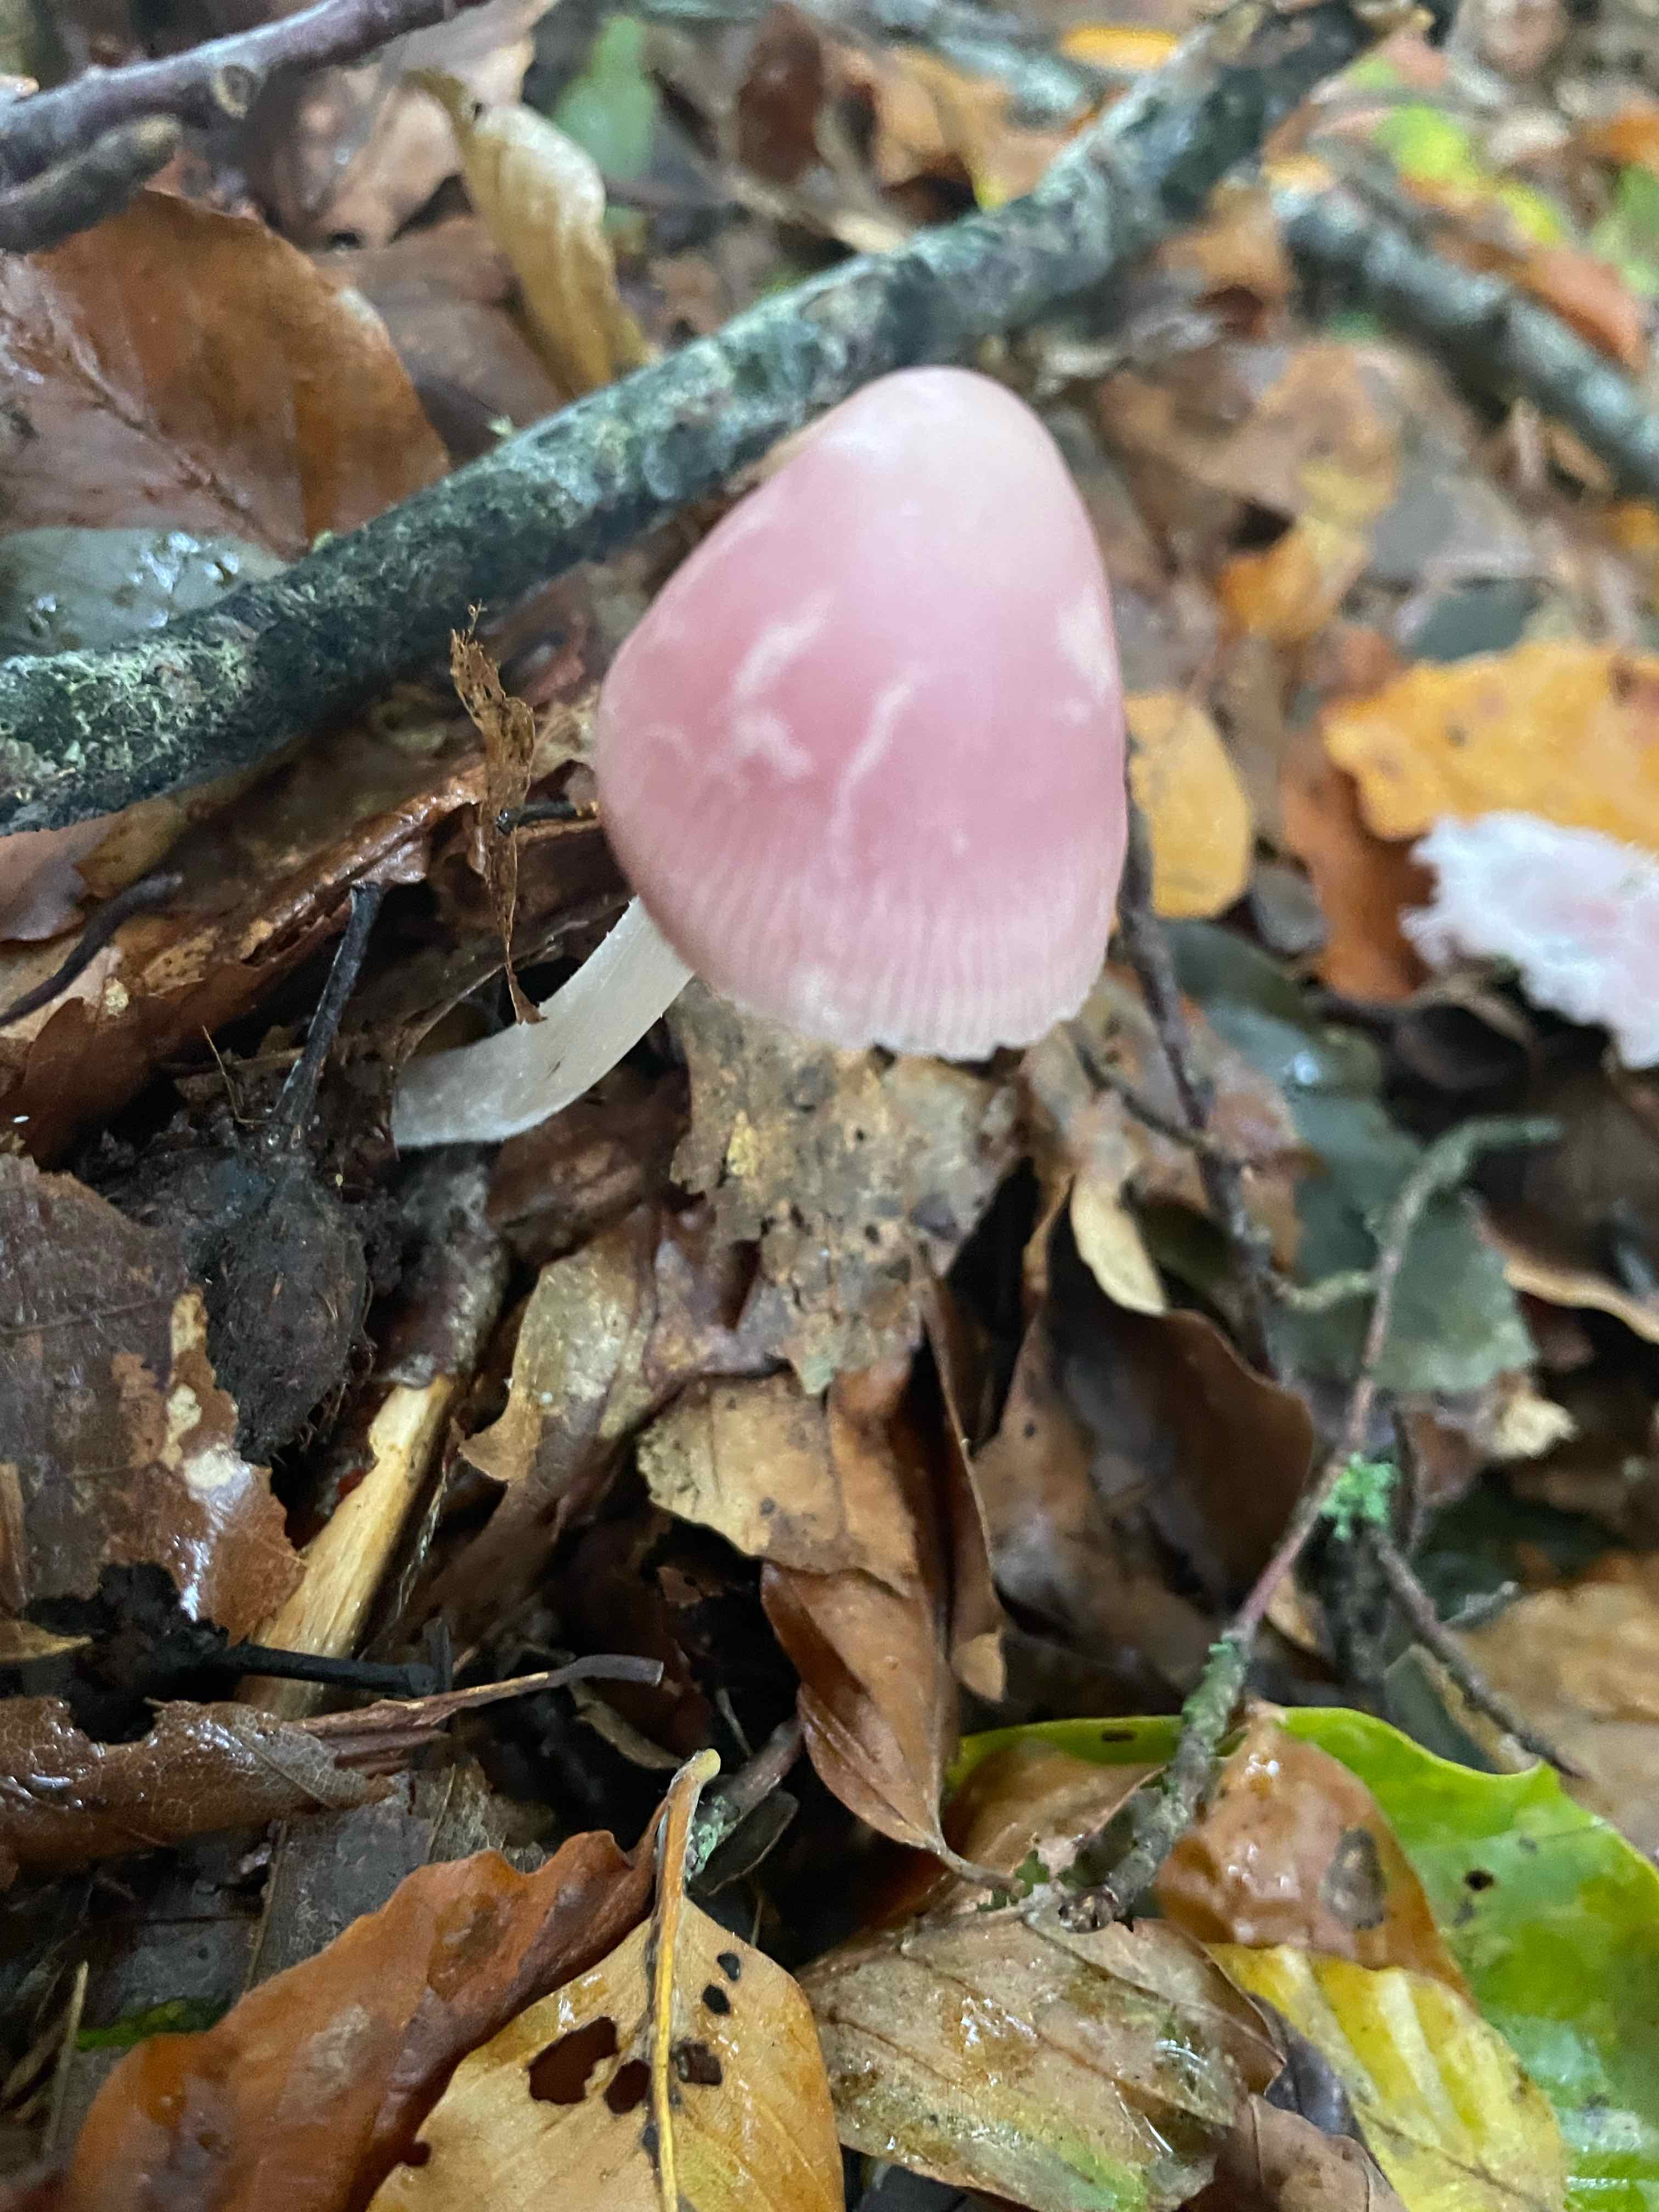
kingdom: Fungi
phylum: Basidiomycota
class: Agaricomycetes
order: Agaricales
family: Mycenaceae
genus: Mycena
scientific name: Mycena rosea
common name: rosa huesvamp
